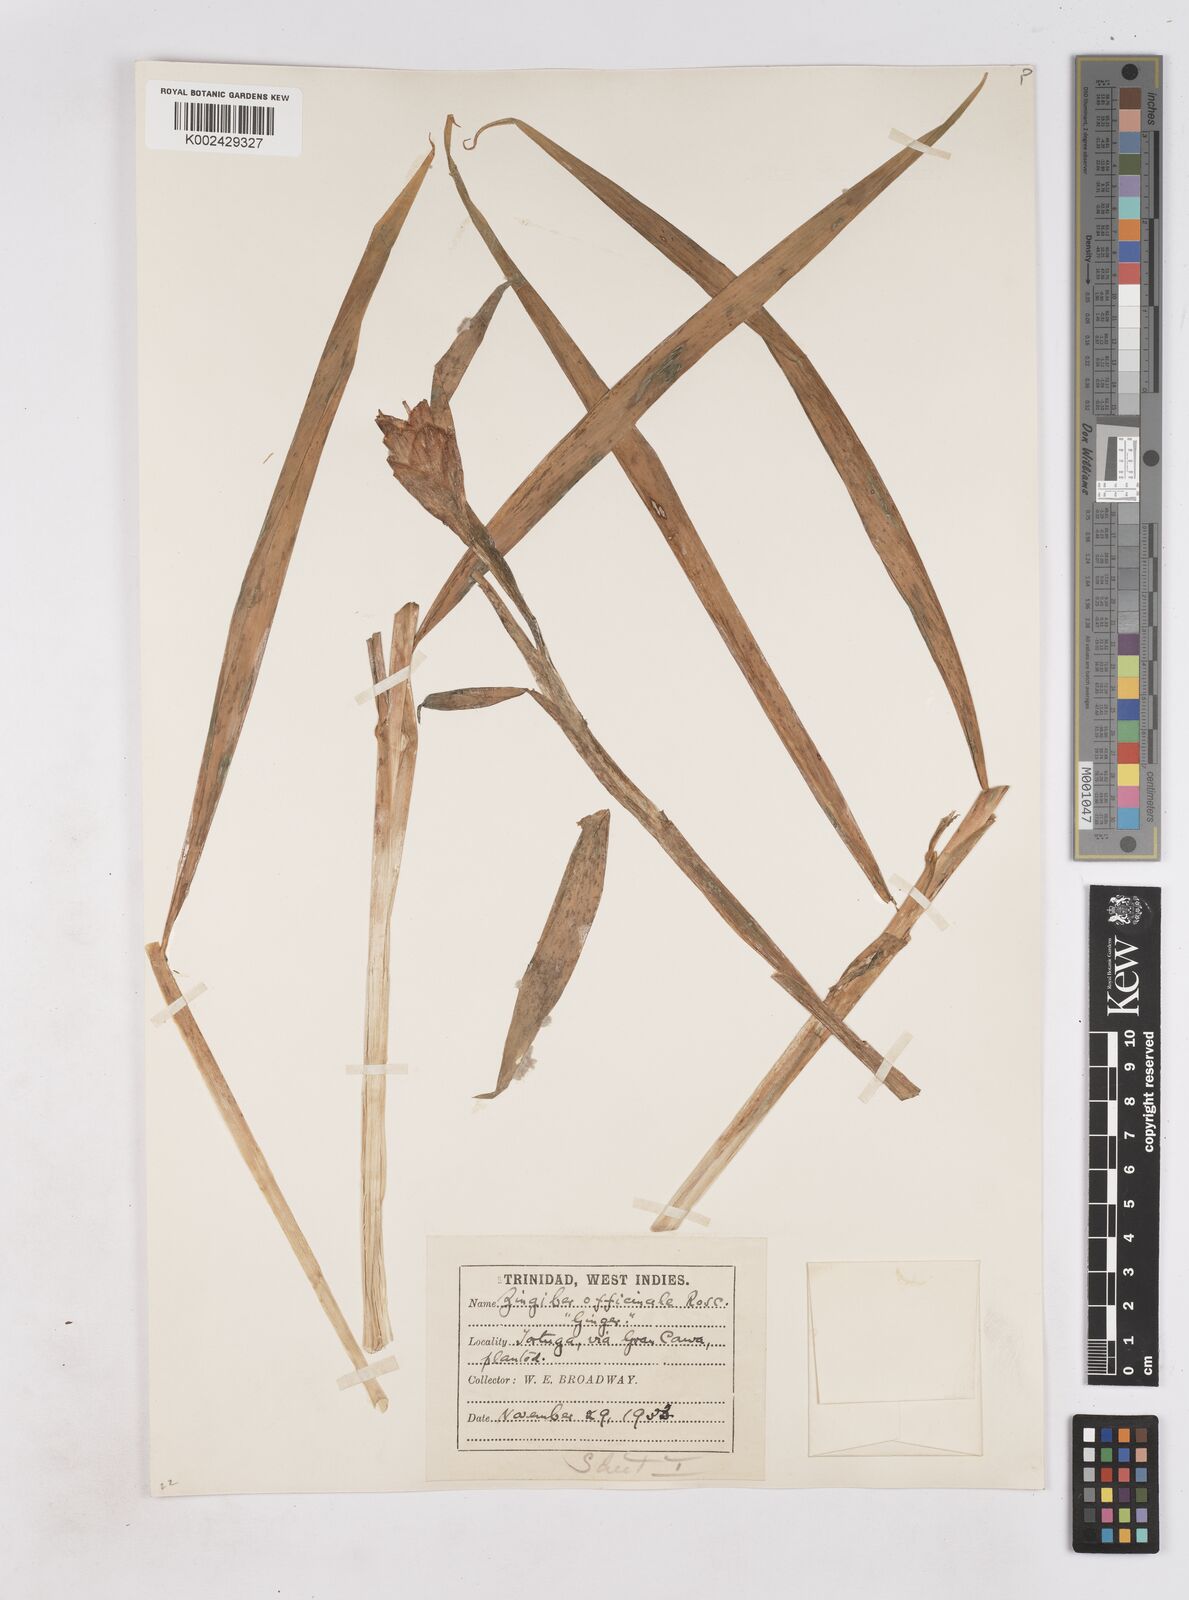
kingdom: Plantae
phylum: Tracheophyta
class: Liliopsida
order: Zingiberales
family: Zingiberaceae
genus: Zingiber
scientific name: Zingiber officinale
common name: Ginger
